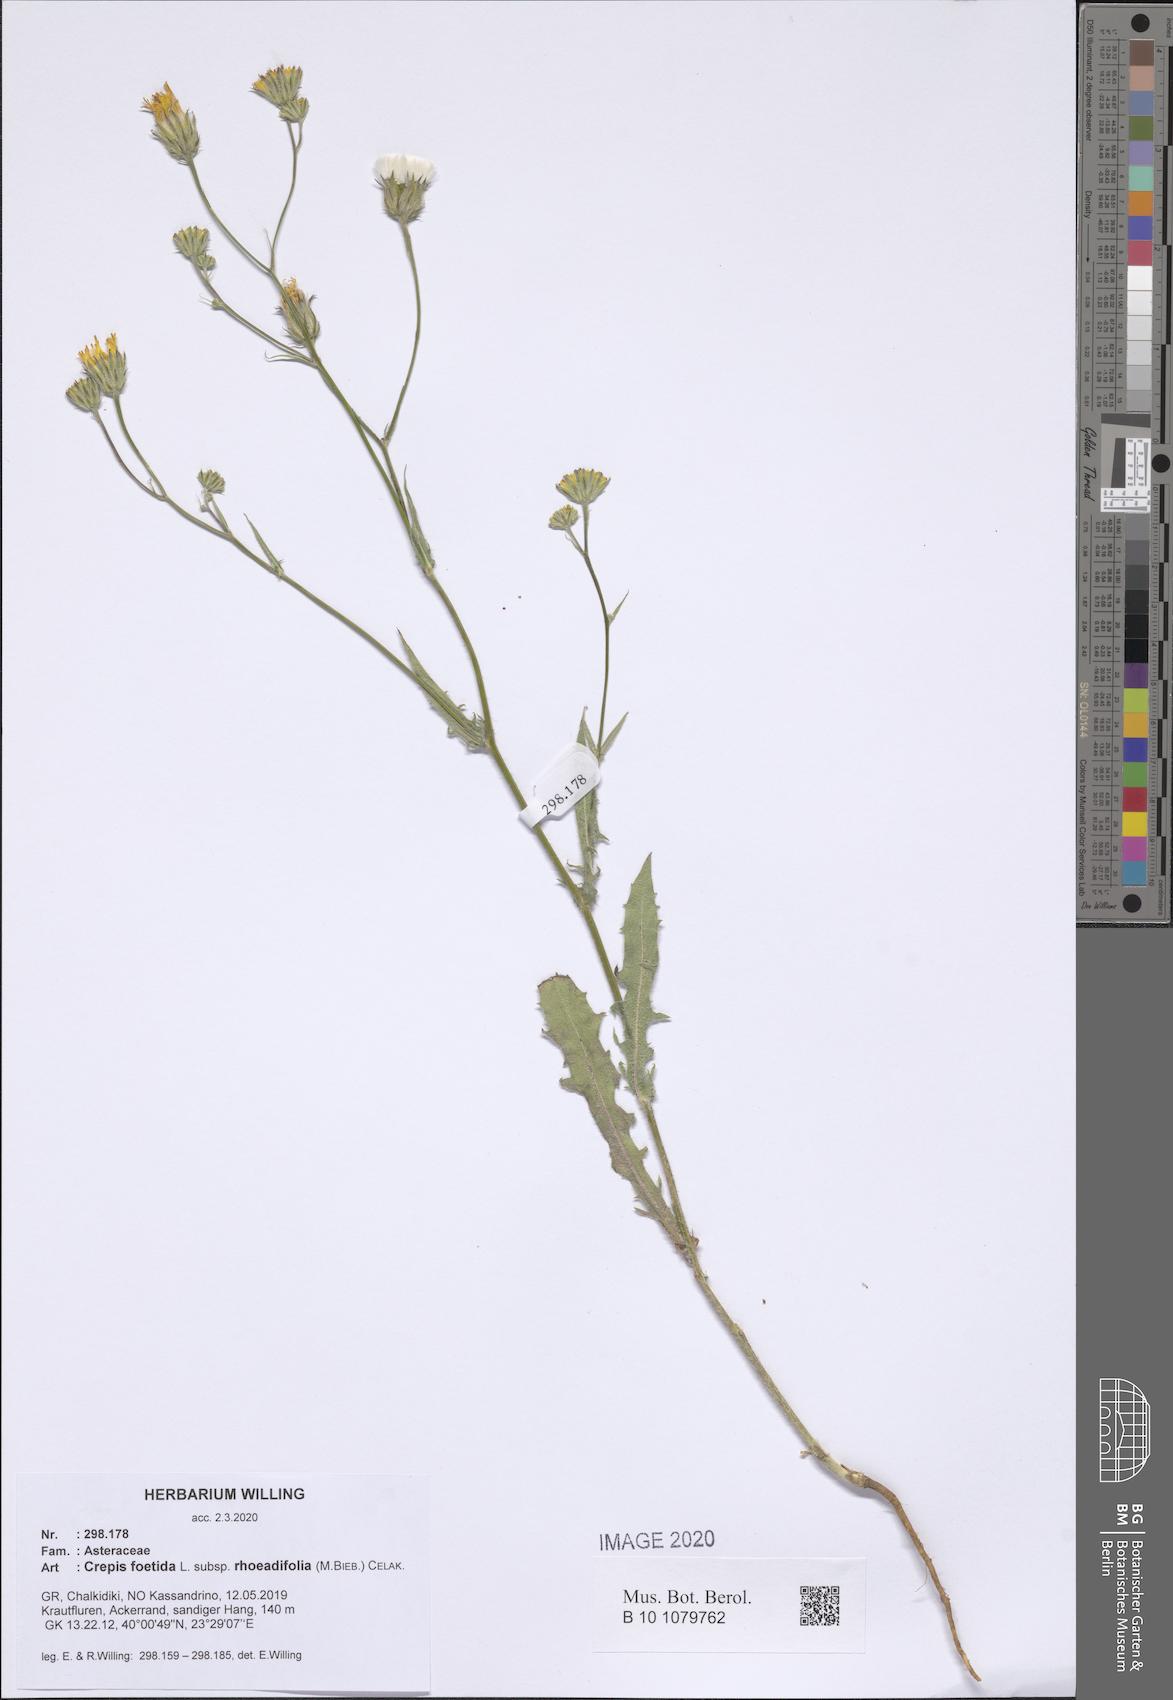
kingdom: Plantae
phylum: Tracheophyta
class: Magnoliopsida
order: Asterales
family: Asteraceae
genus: Crepis
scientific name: Crepis foetida
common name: Stinking hawk's-beard
